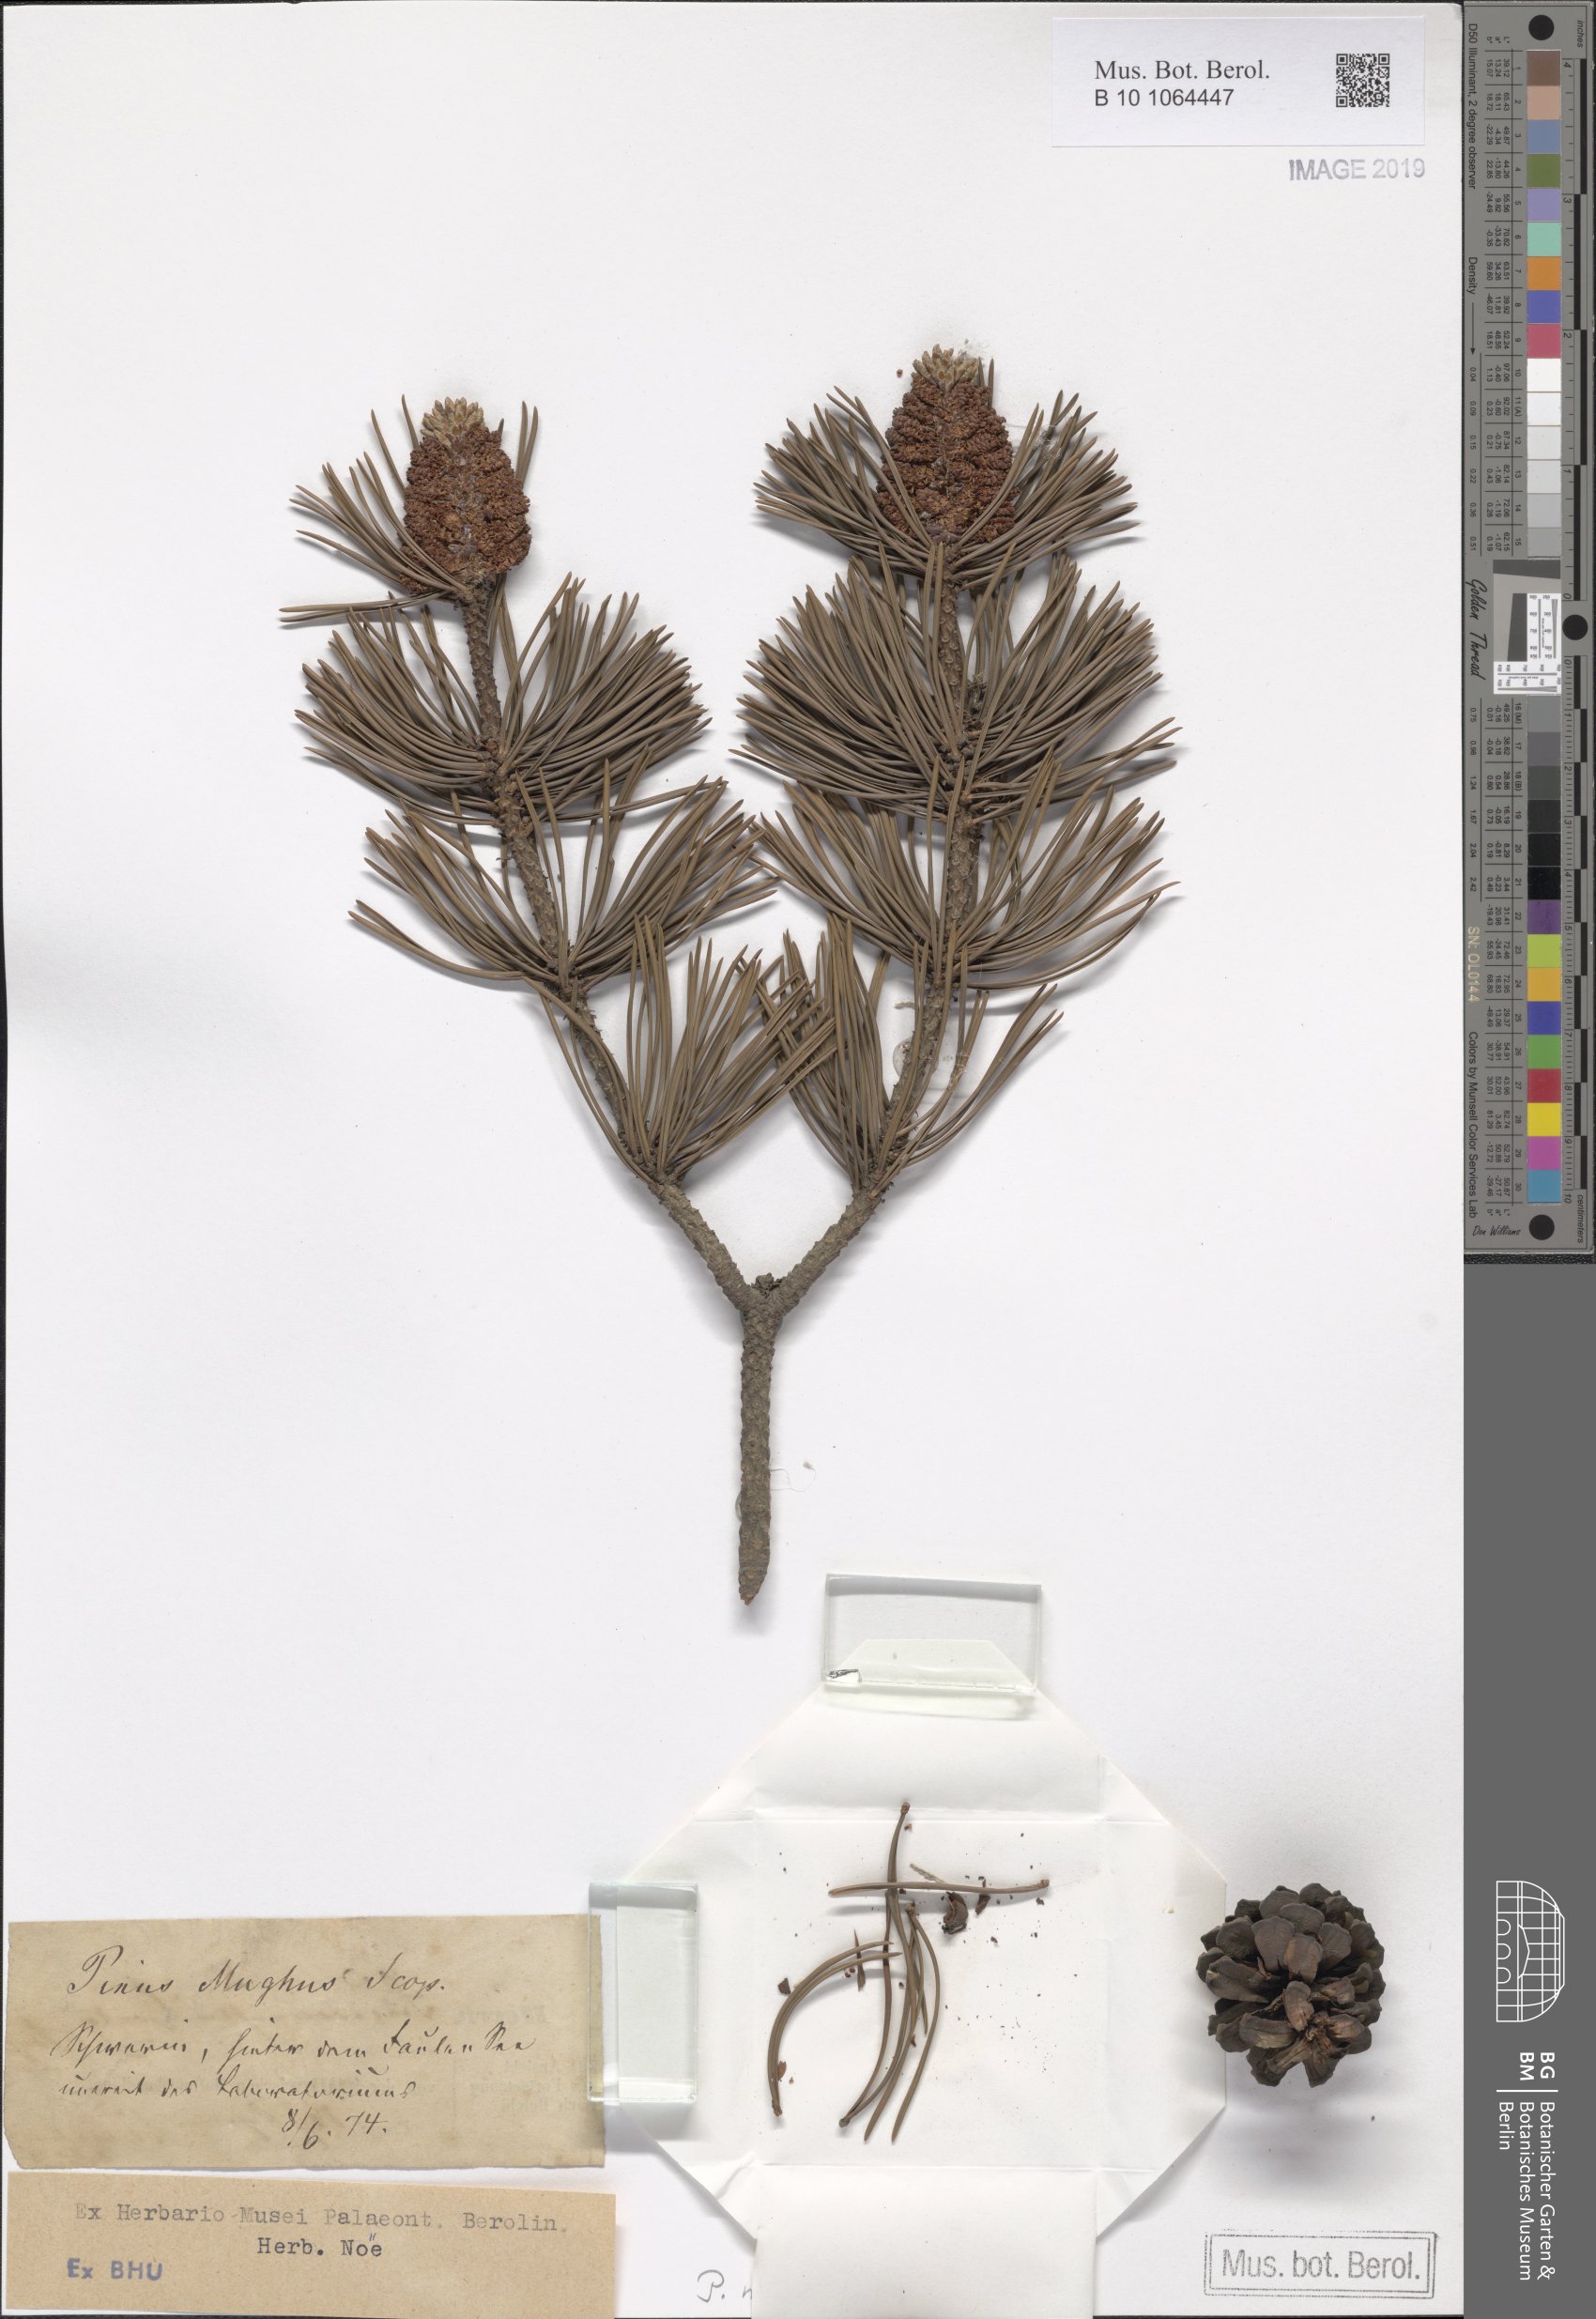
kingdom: Plantae
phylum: Tracheophyta
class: Pinopsida
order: Pinales
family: Pinaceae
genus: Pinus
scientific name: Pinus mugo
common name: Mugo pine
